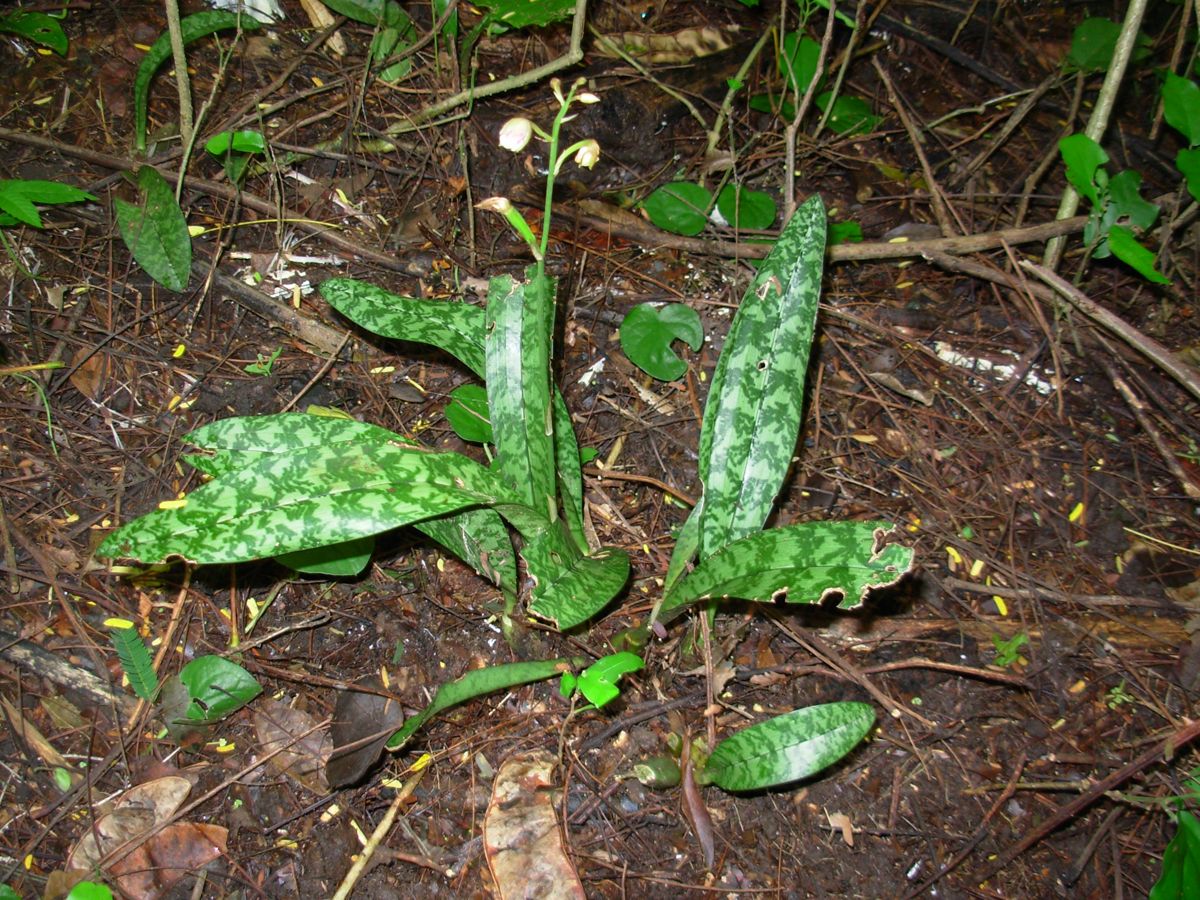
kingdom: Plantae
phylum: Tracheophyta
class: Liliopsida
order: Asparagales
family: Orchidaceae
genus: Eulophia
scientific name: Eulophia maculata
